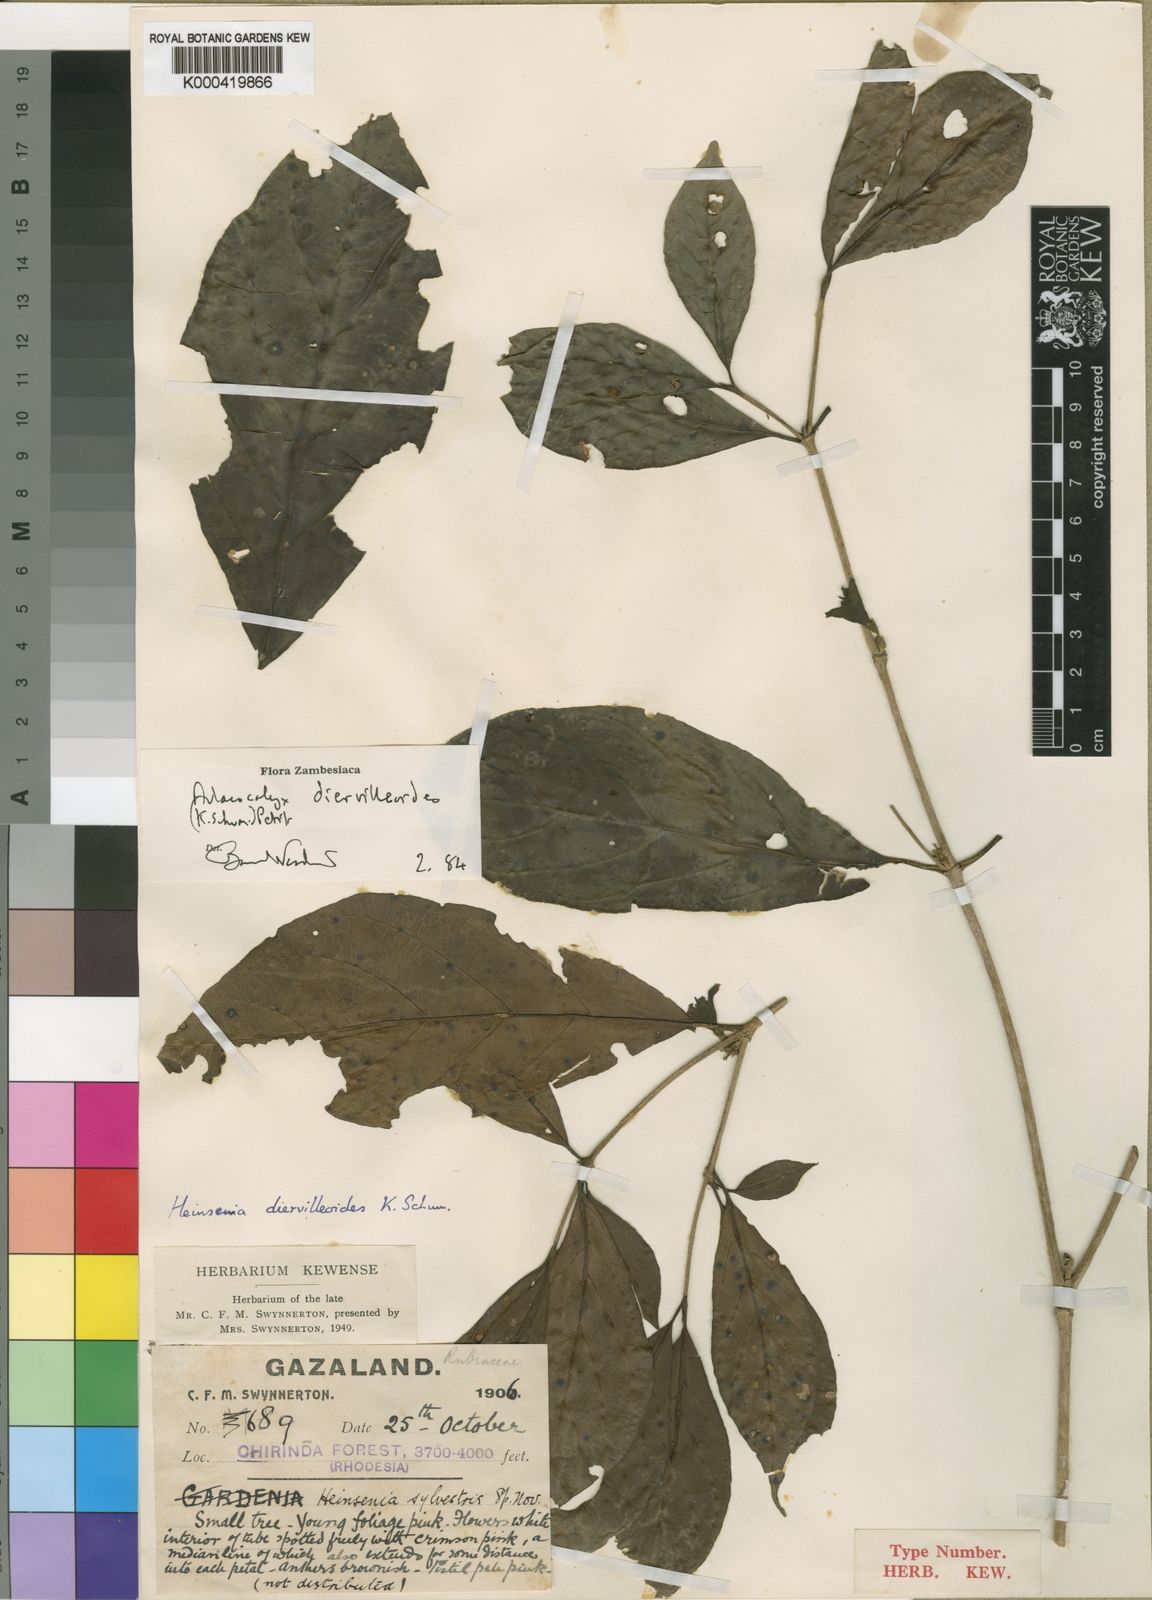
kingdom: Plantae
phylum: Tracheophyta
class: Magnoliopsida
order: Gentianales
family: Rubiaceae
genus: Heinsenia
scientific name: Heinsenia diervilleoides
